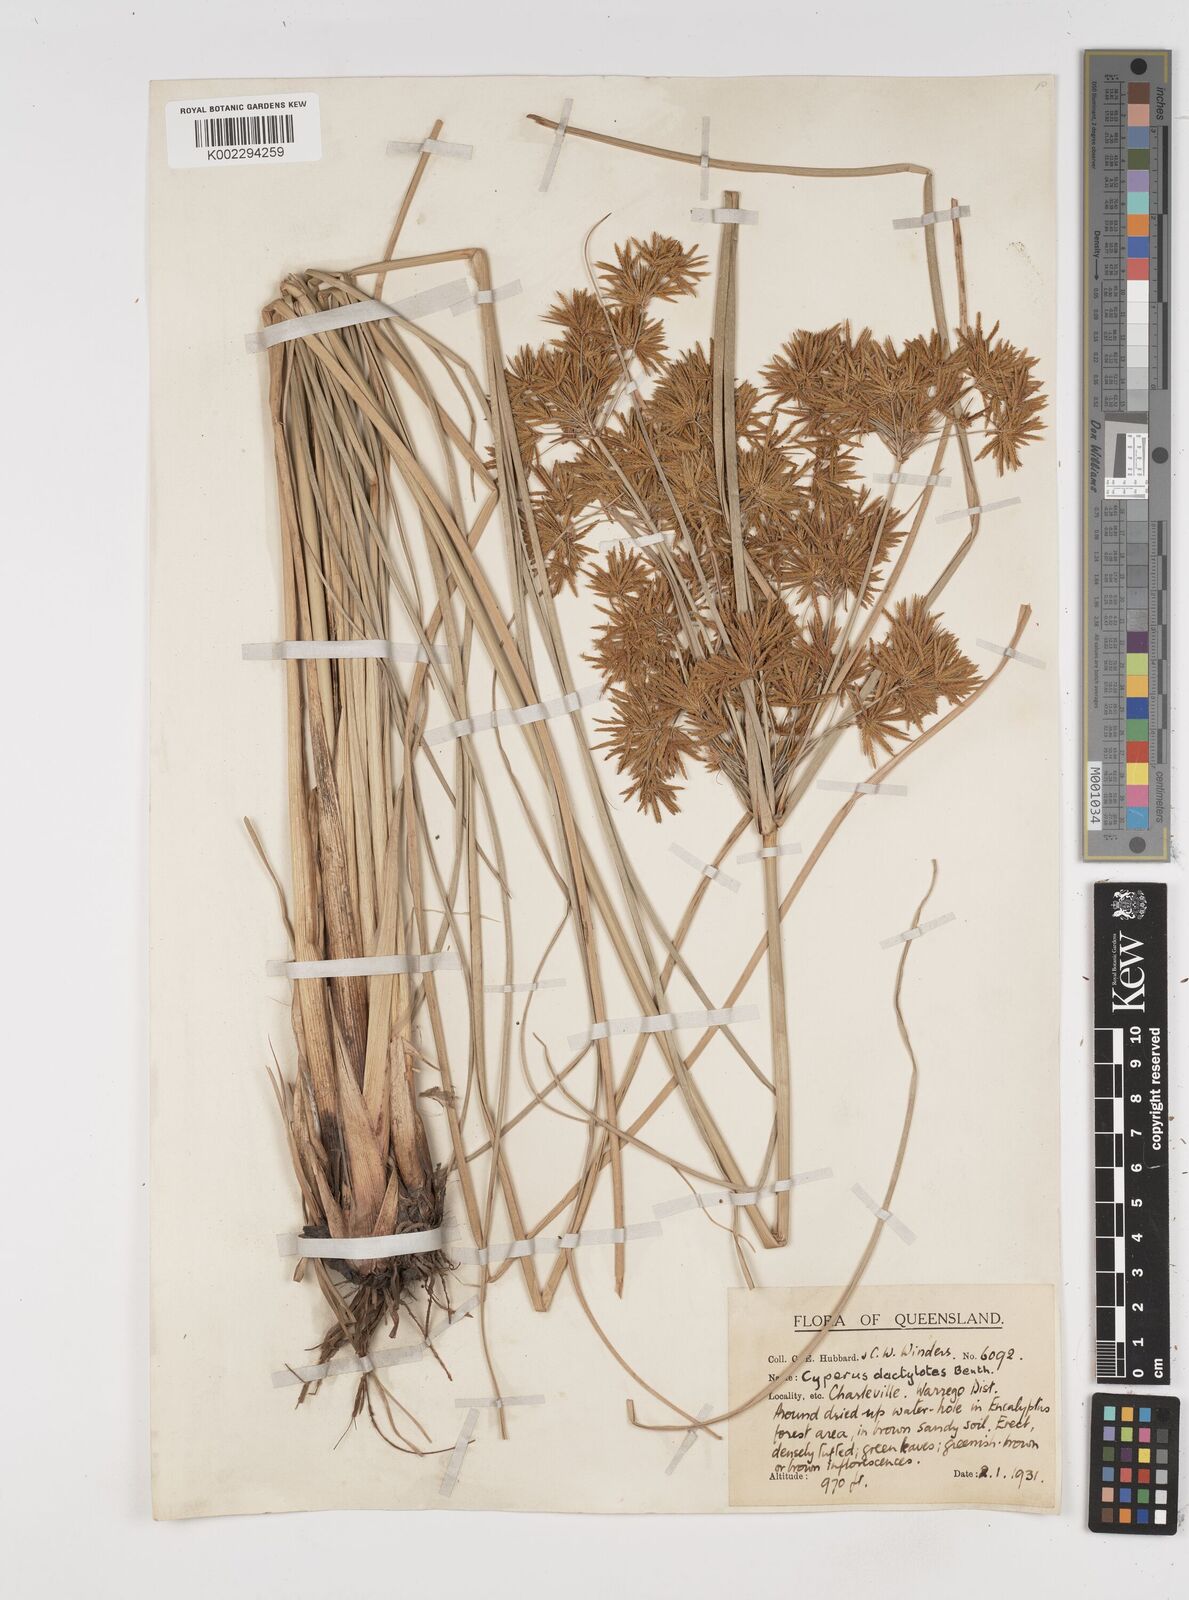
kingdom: Plantae
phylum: Tracheophyta
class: Liliopsida
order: Poales
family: Cyperaceae
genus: Cyperus
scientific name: Cyperus dactylotes
